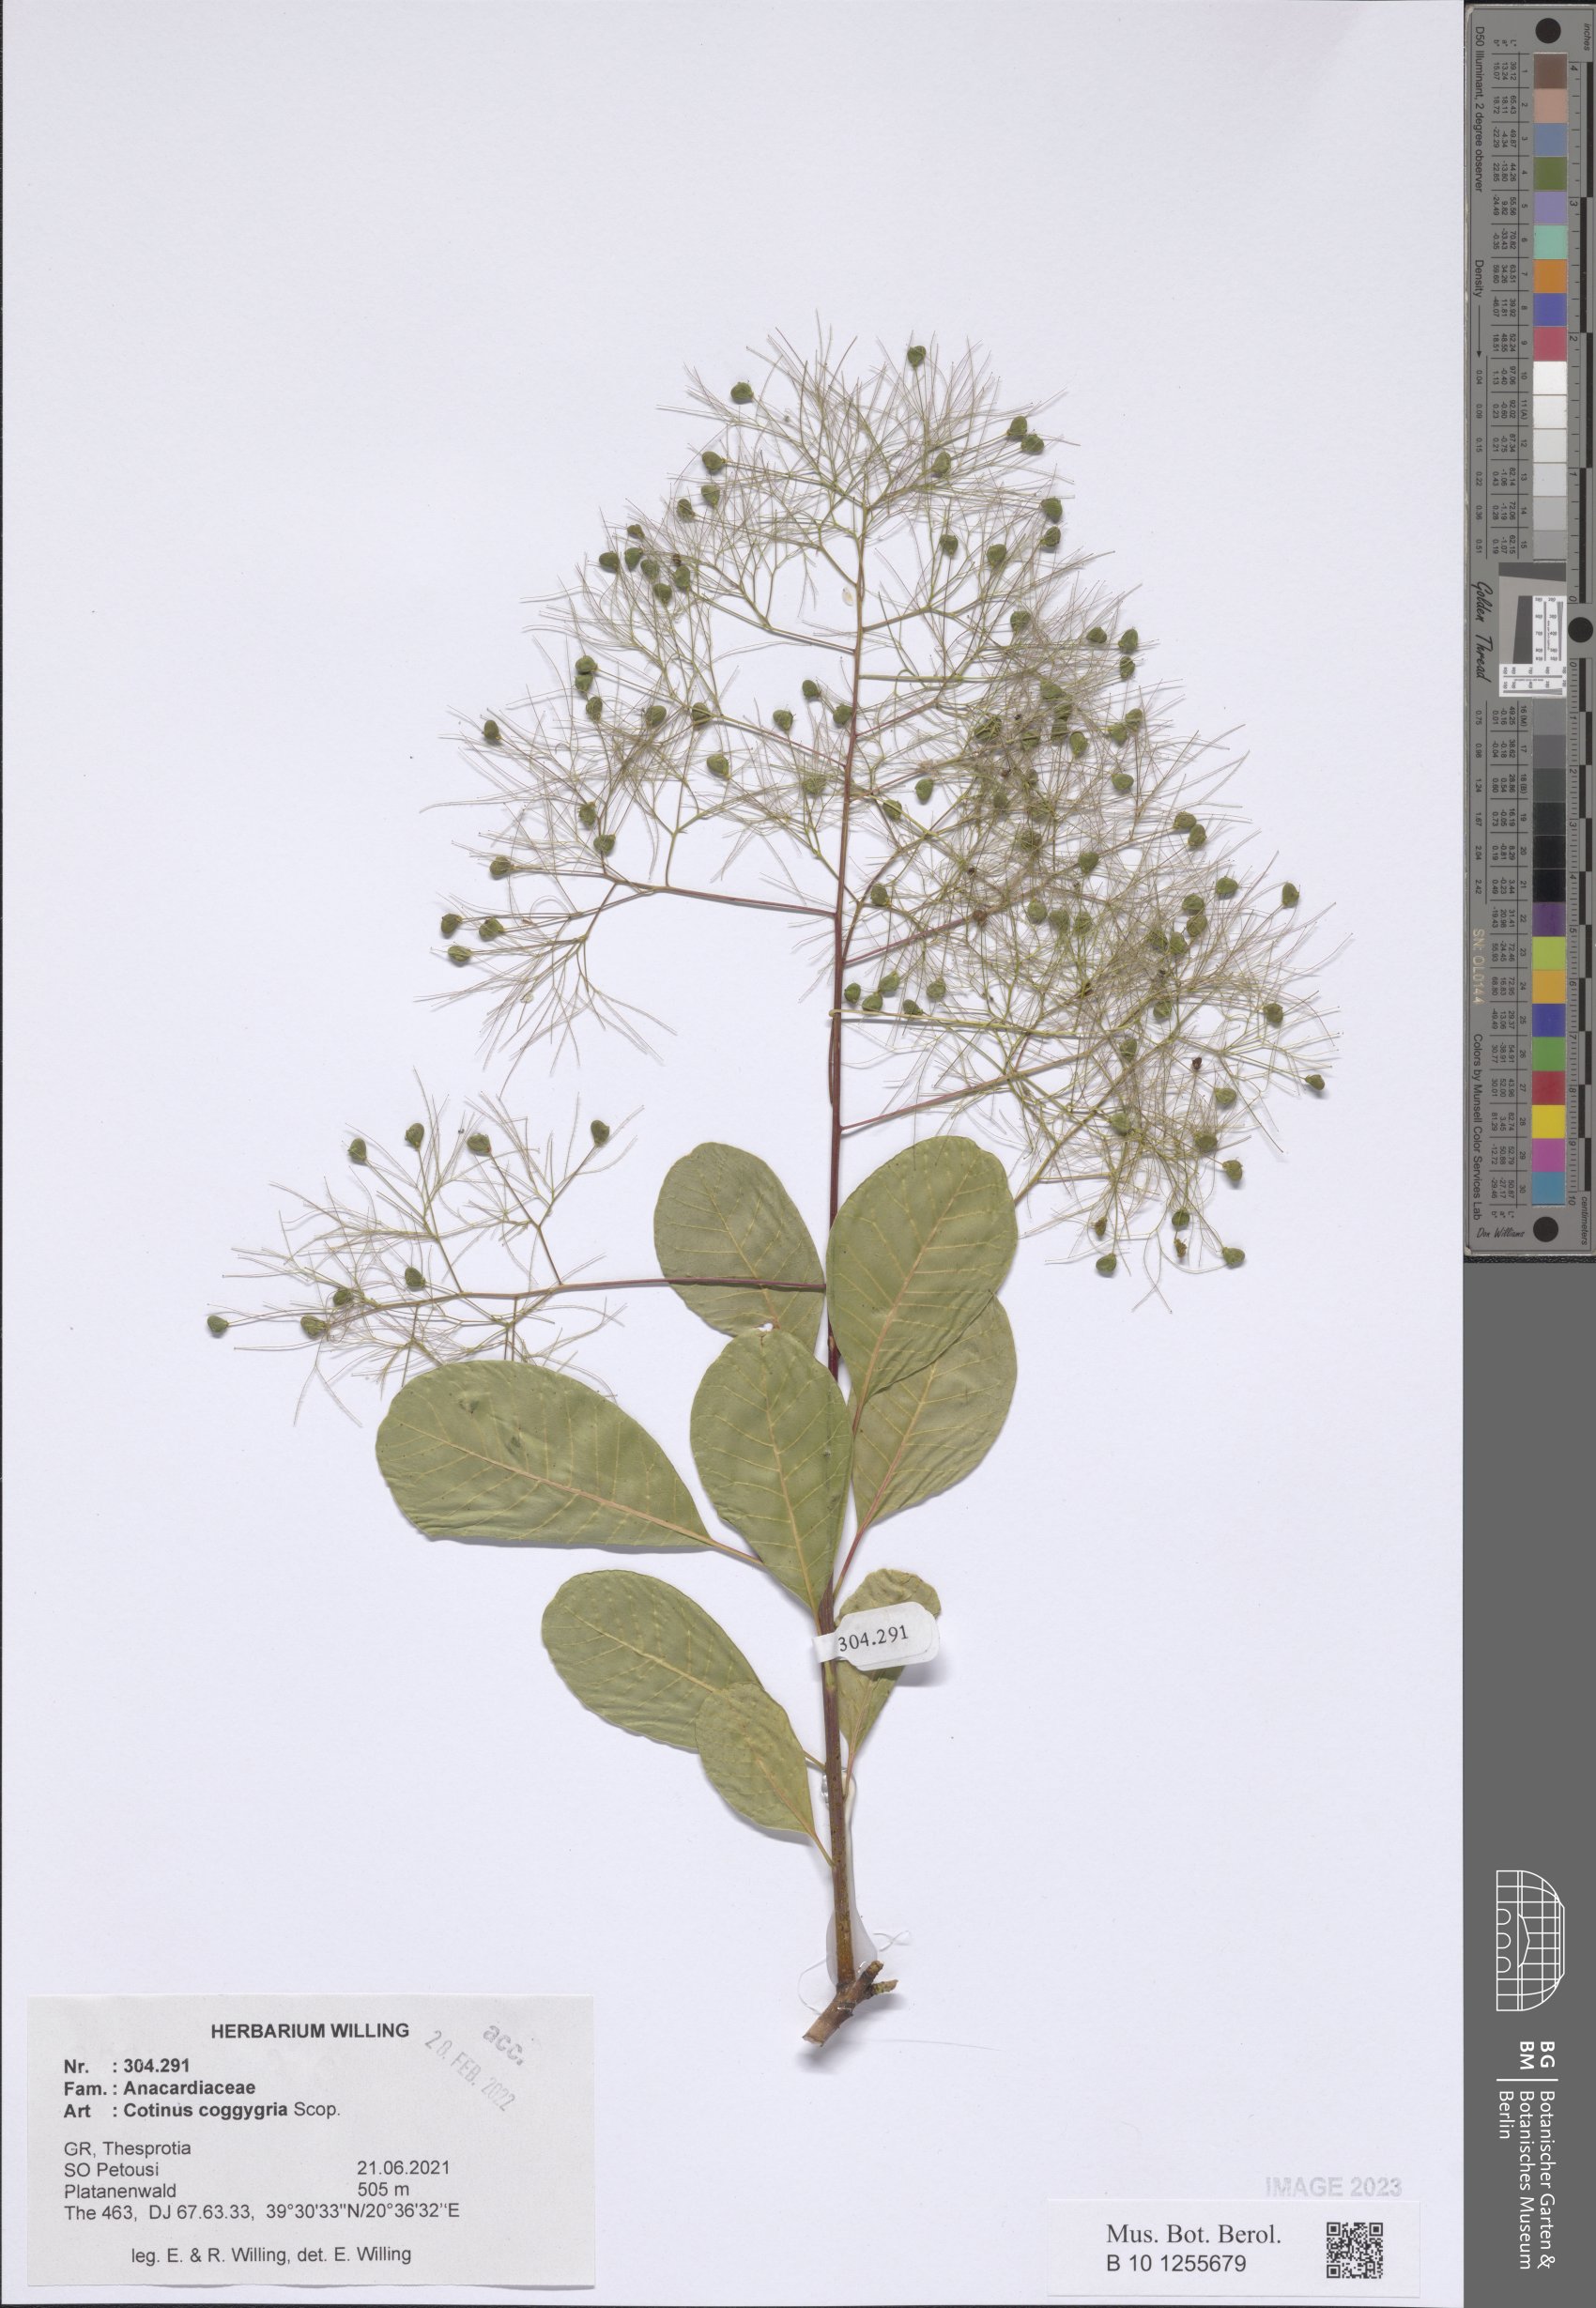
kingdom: Plantae
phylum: Tracheophyta
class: Magnoliopsida
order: Sapindales
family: Anacardiaceae
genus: Cotinus
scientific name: Cotinus coggygria
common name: Smoke-tree
